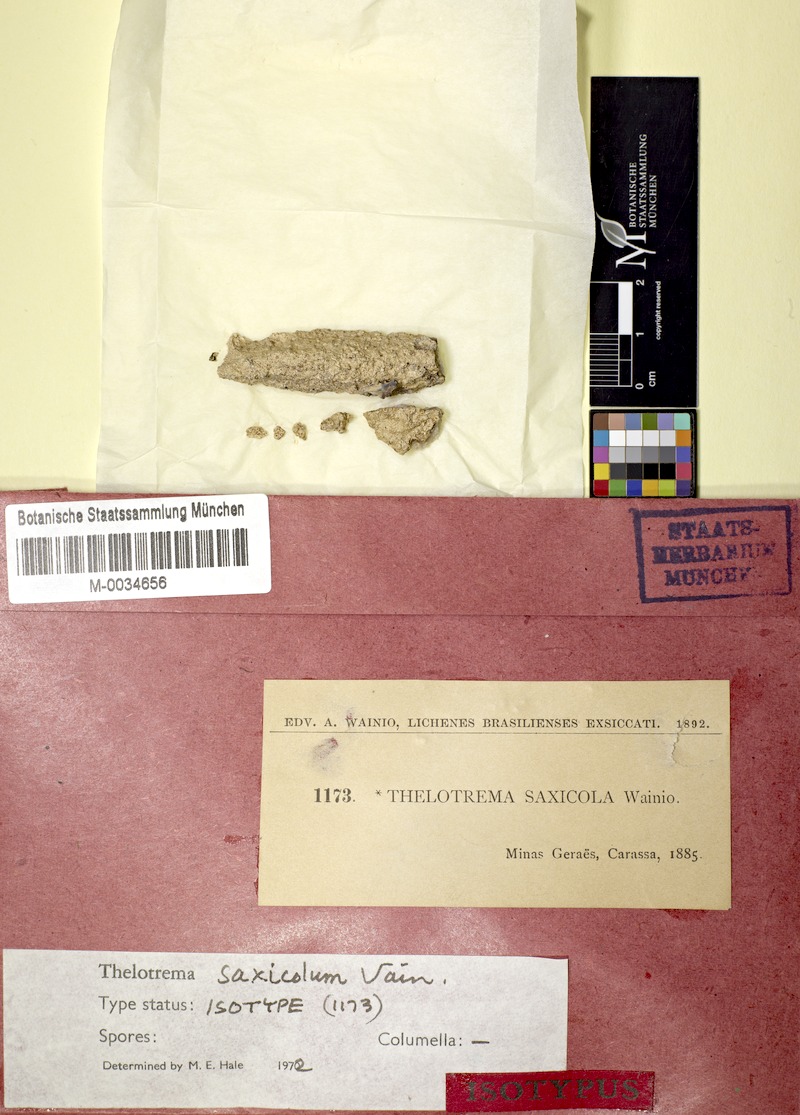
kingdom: Fungi
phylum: Ascomycota
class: Lecanoromycetes
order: Ostropales
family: Graphidaceae
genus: Thelotrema
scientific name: Thelotrema saxicola
